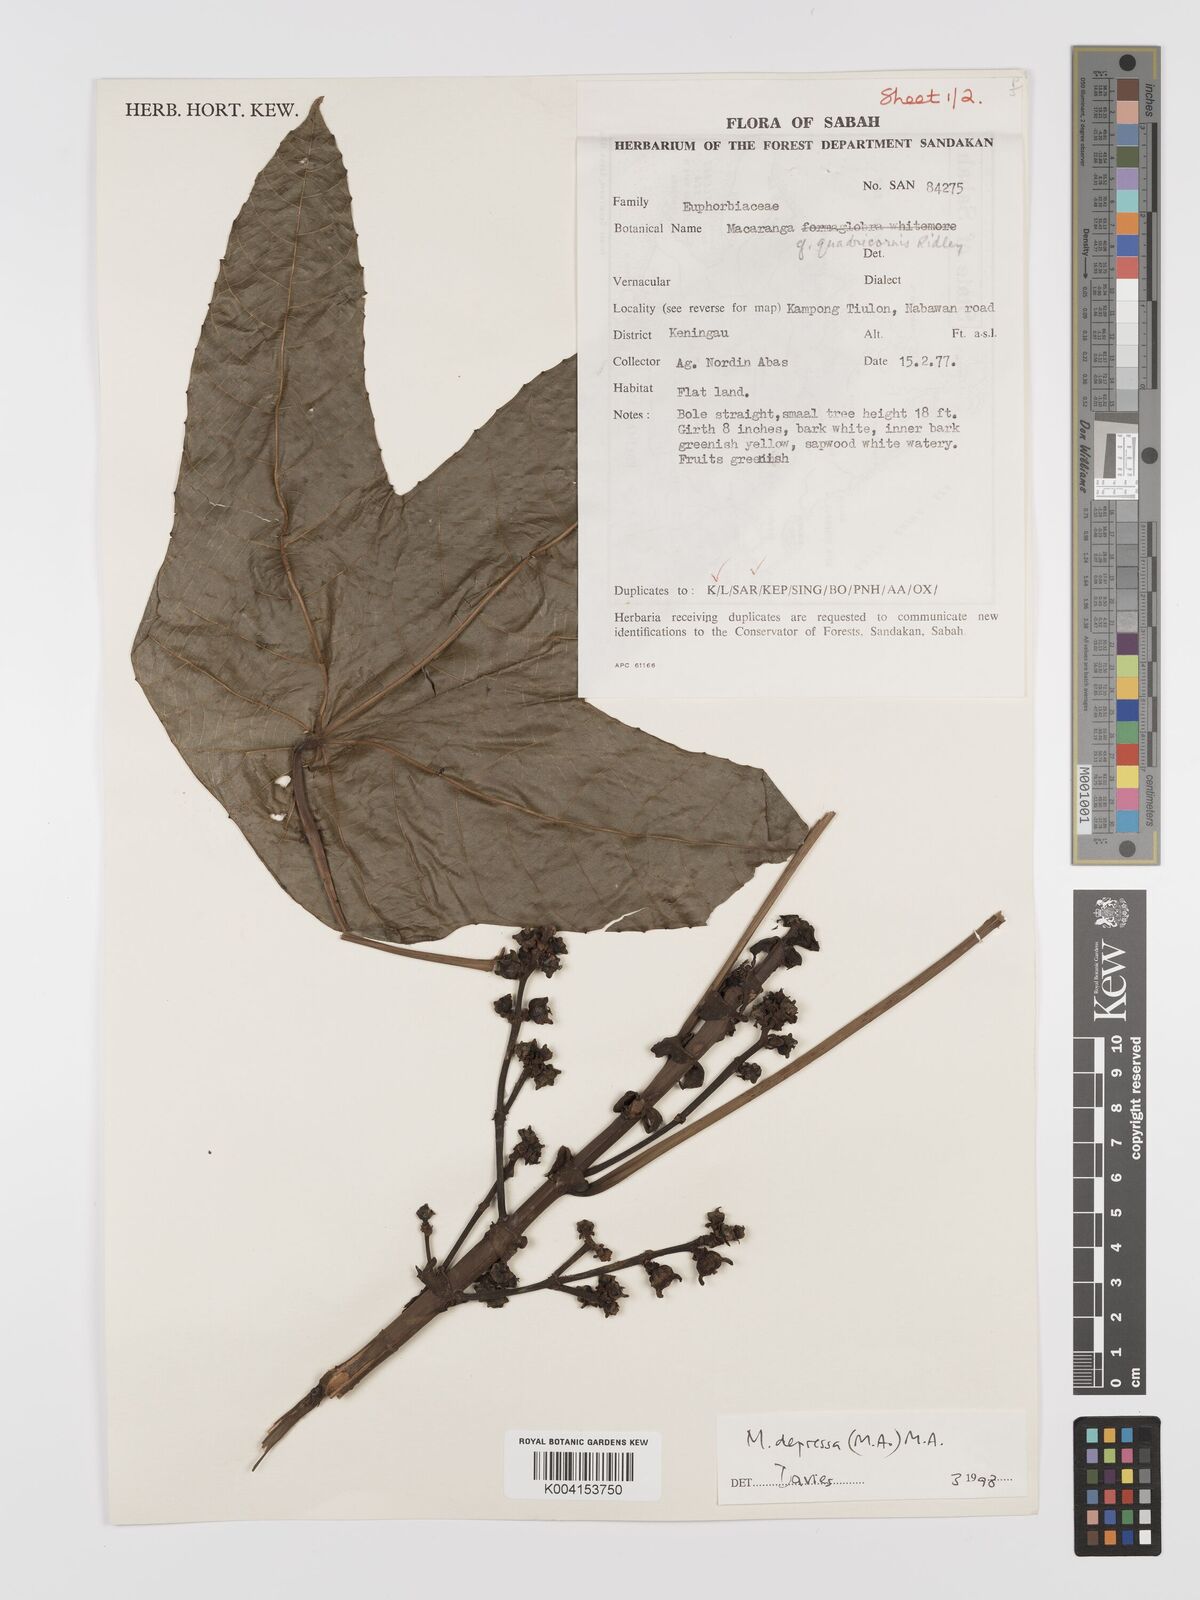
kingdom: Plantae
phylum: Tracheophyta
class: Magnoliopsida
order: Malpighiales
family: Euphorbiaceae
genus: Macaranga
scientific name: Macaranga depressa
